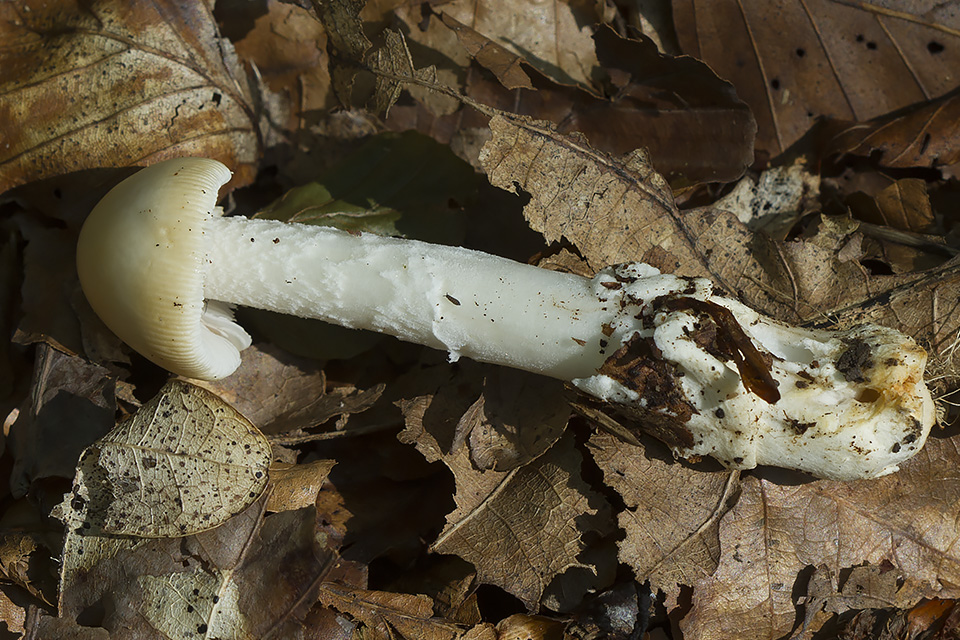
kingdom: Fungi
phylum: Basidiomycota
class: Agaricomycetes
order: Agaricales
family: Amanitaceae
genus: Amanita
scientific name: Amanita dryophila
